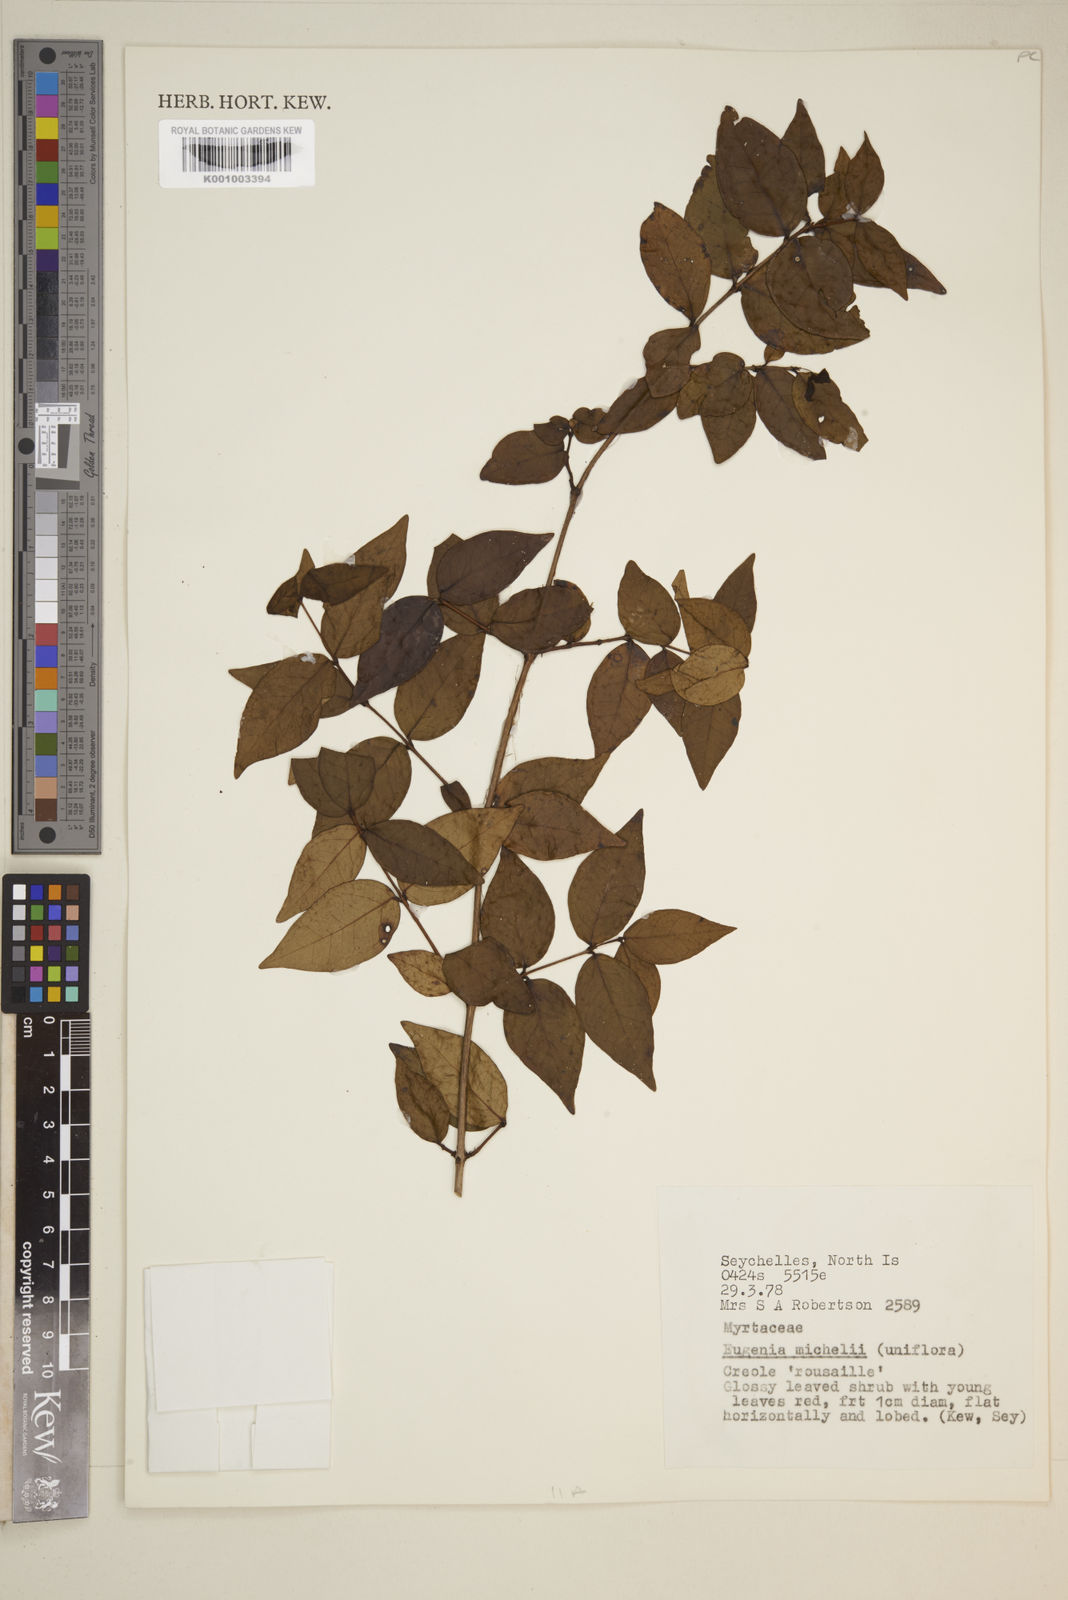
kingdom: Plantae
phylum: Tracheophyta
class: Magnoliopsida
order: Myrtales
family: Myrtaceae
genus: Eugenia
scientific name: Eugenia uniflora
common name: Surinam cherry
